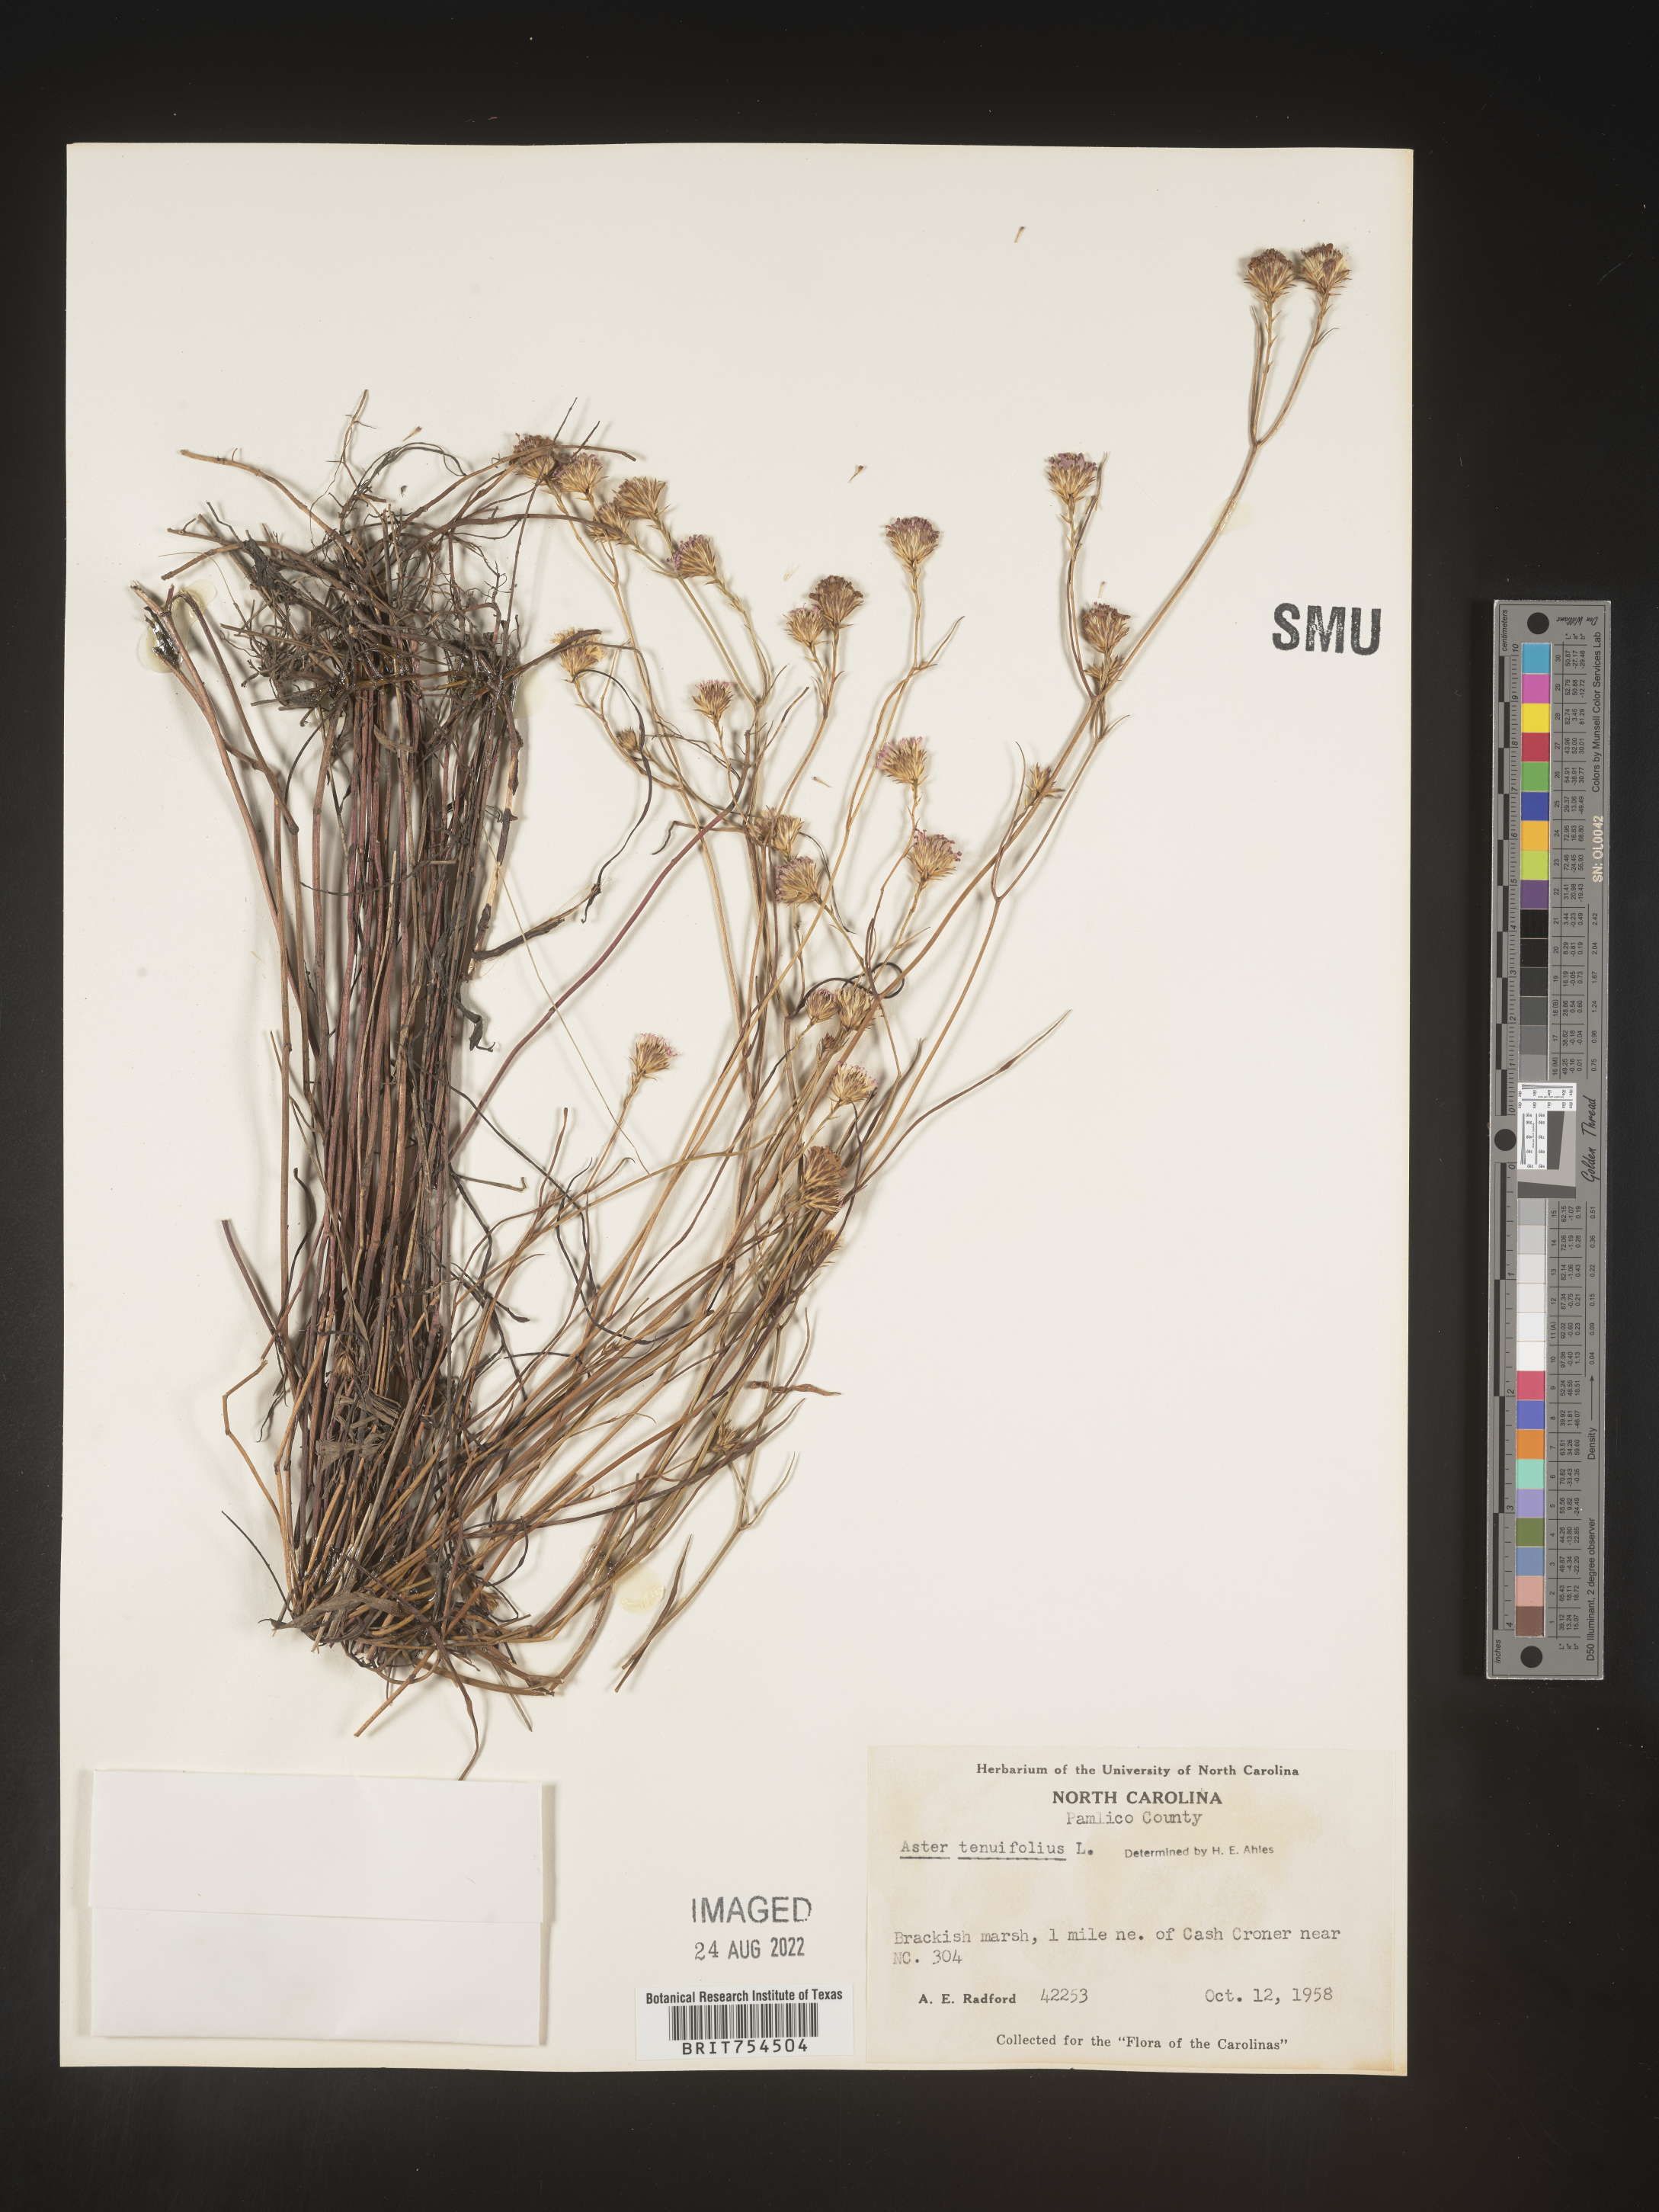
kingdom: Plantae
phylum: Tracheophyta
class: Magnoliopsida
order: Asterales
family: Asteraceae
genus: Symphyotrichum
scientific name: Symphyotrichum tenuifolium
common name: Perennial salt-marsh aster
